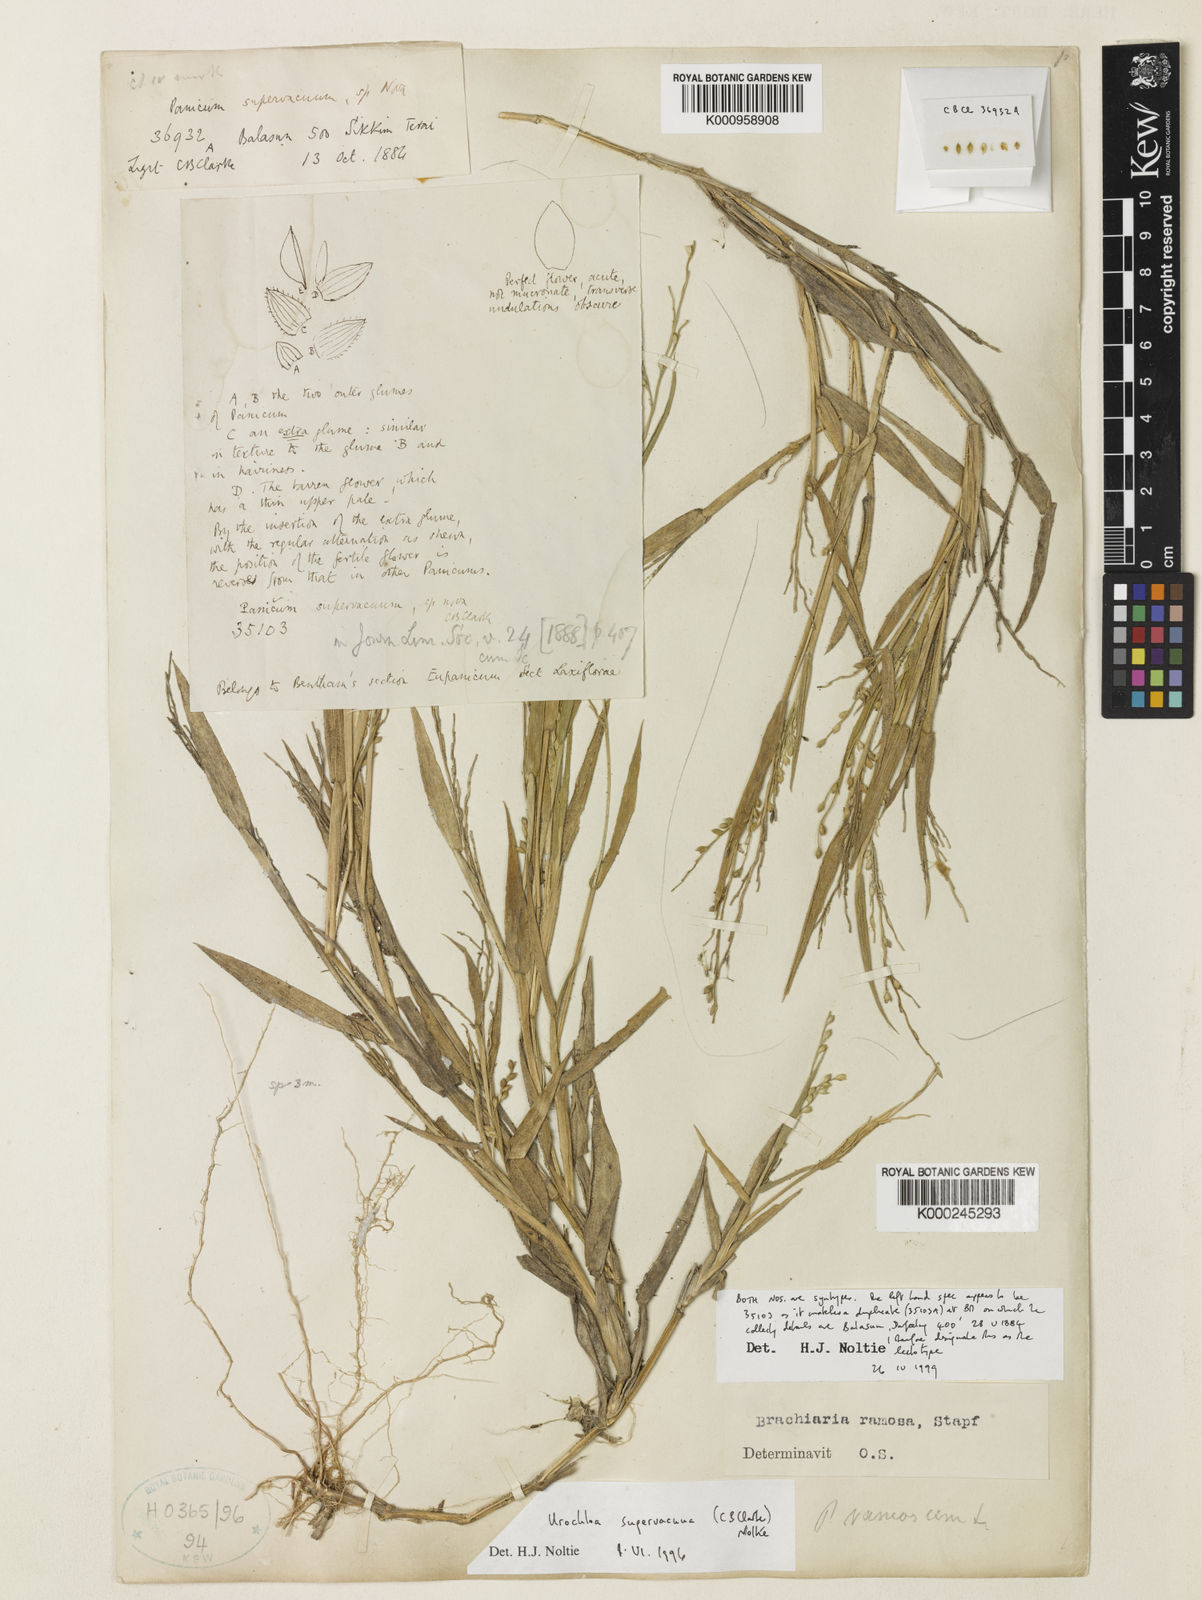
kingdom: Plantae
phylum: Tracheophyta
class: Liliopsida
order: Poales
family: Poaceae
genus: Urochloa
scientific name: Urochloa ramosa
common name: Browntop millet
